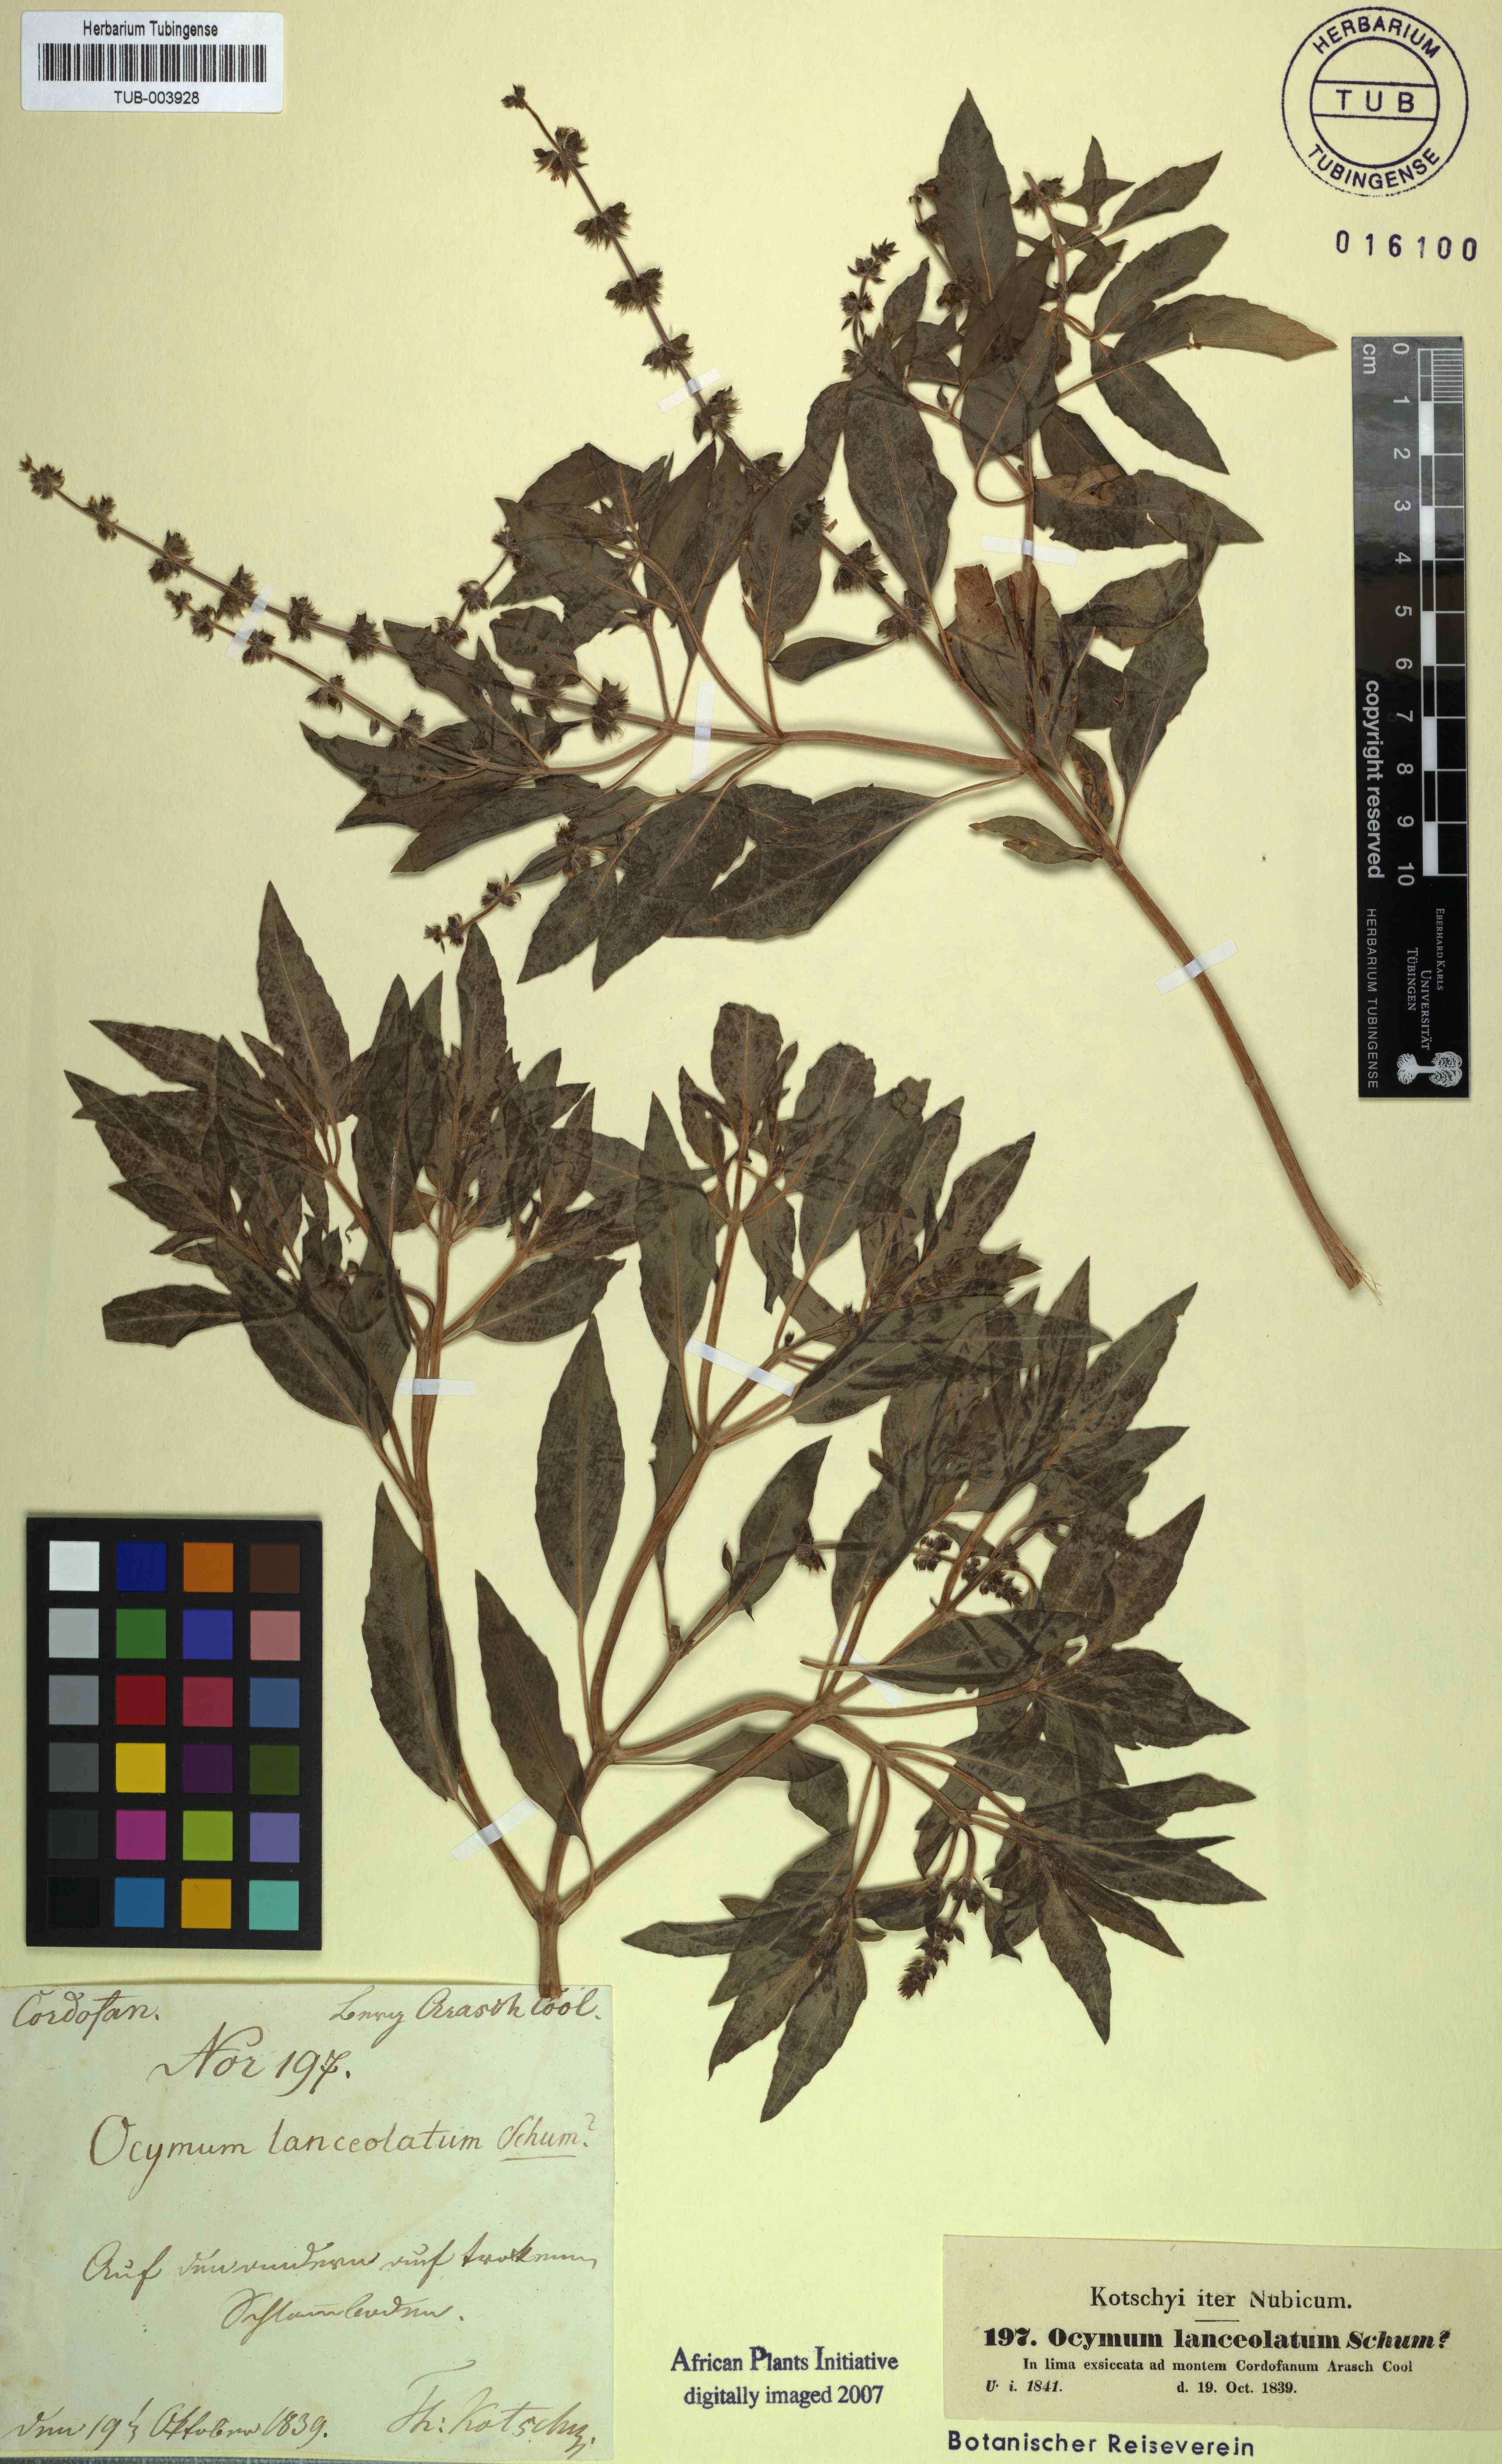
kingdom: Plantae
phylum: Tracheophyta
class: Magnoliopsida
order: Lamiales
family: Lamiaceae
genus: Ocimum
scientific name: Ocimum basilicum
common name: Sweet basil
